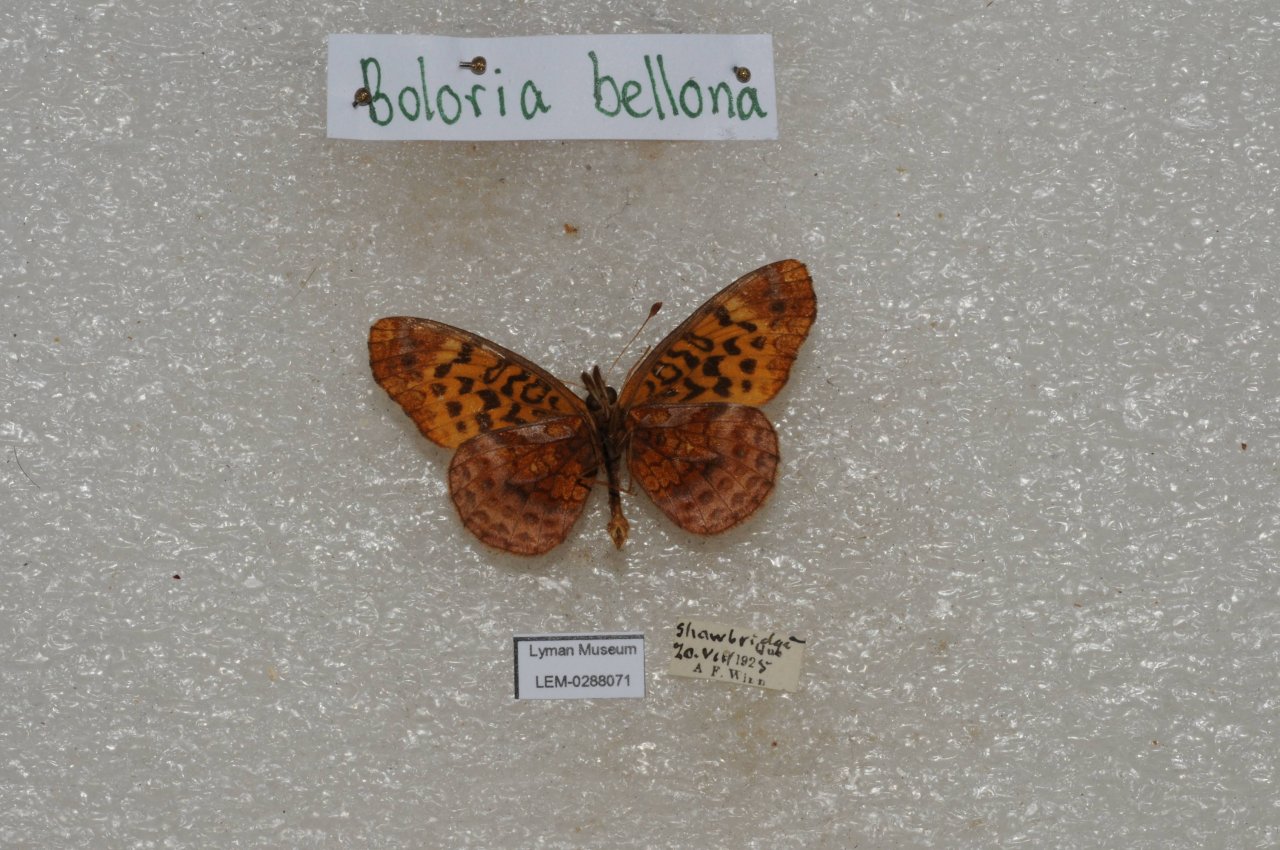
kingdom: Animalia
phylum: Arthropoda
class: Insecta
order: Lepidoptera
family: Nymphalidae
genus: Clossiana
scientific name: Clossiana toddi
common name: Meadow Fritillary
